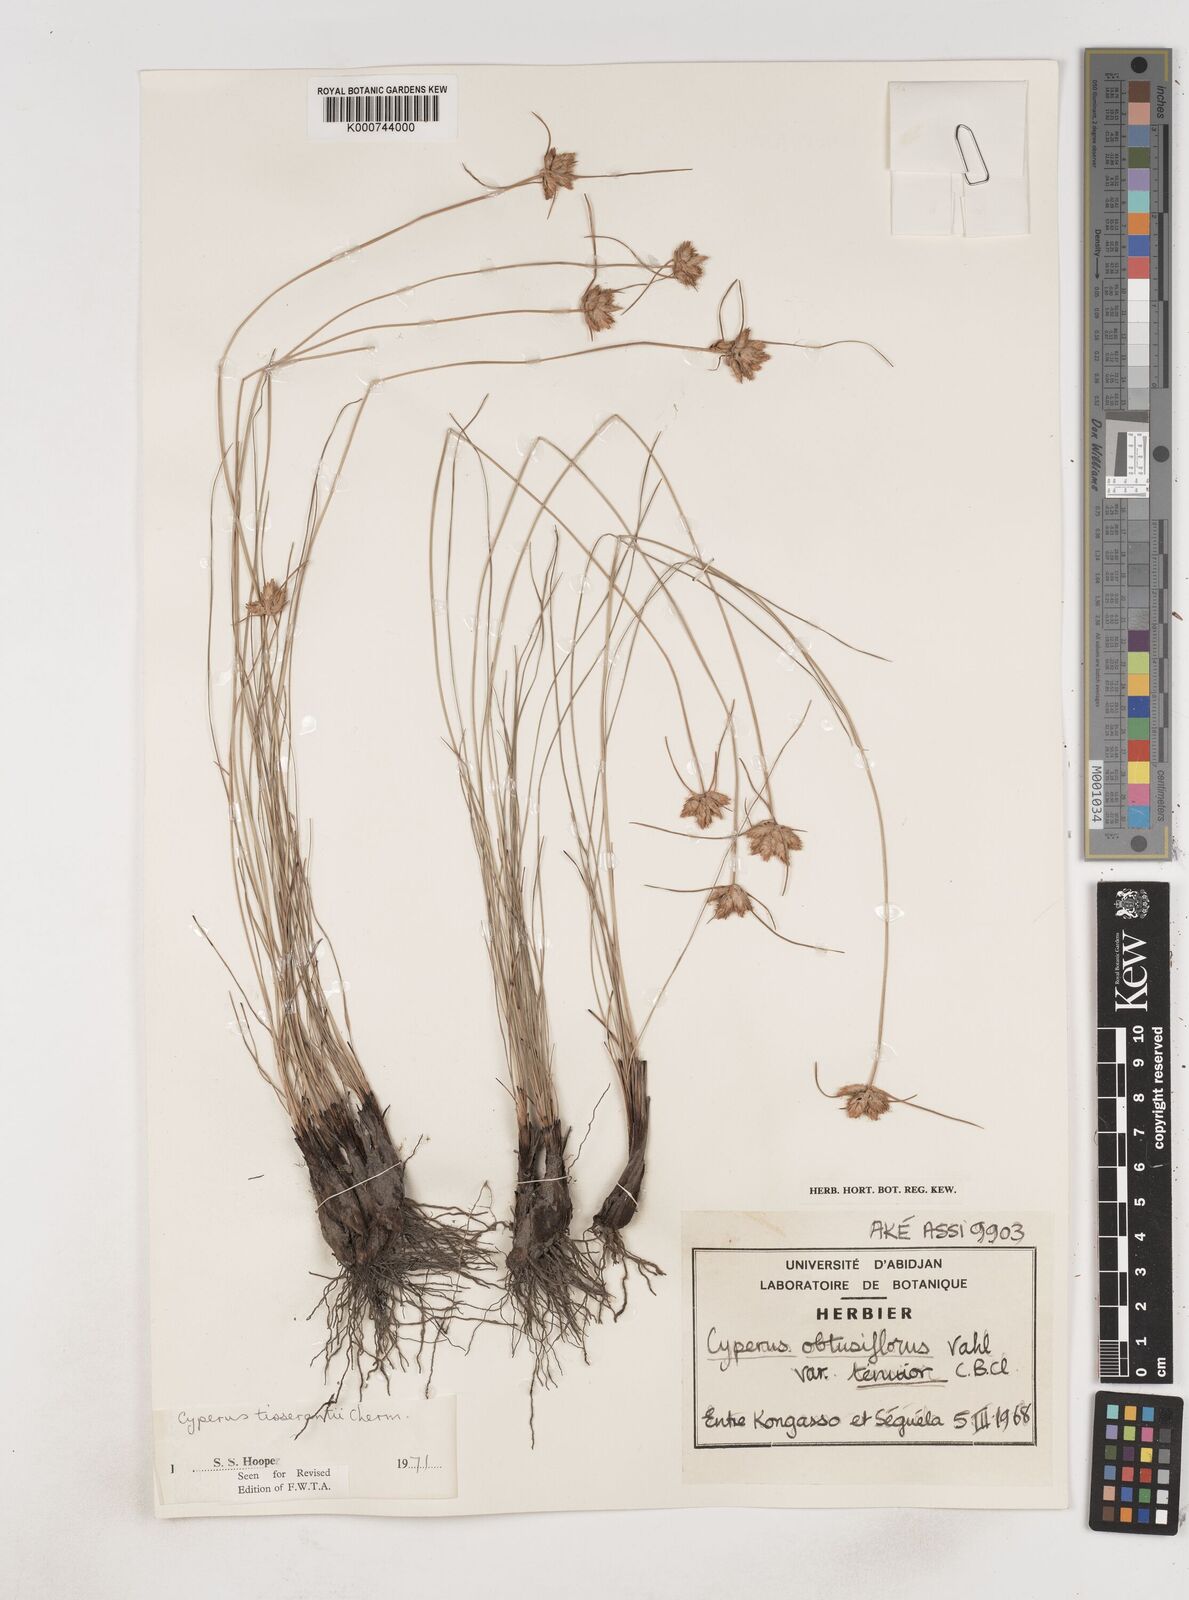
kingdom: Plantae
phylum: Tracheophyta
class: Liliopsida
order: Poales
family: Cyperaceae
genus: Cyperus
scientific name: Cyperus niveus
